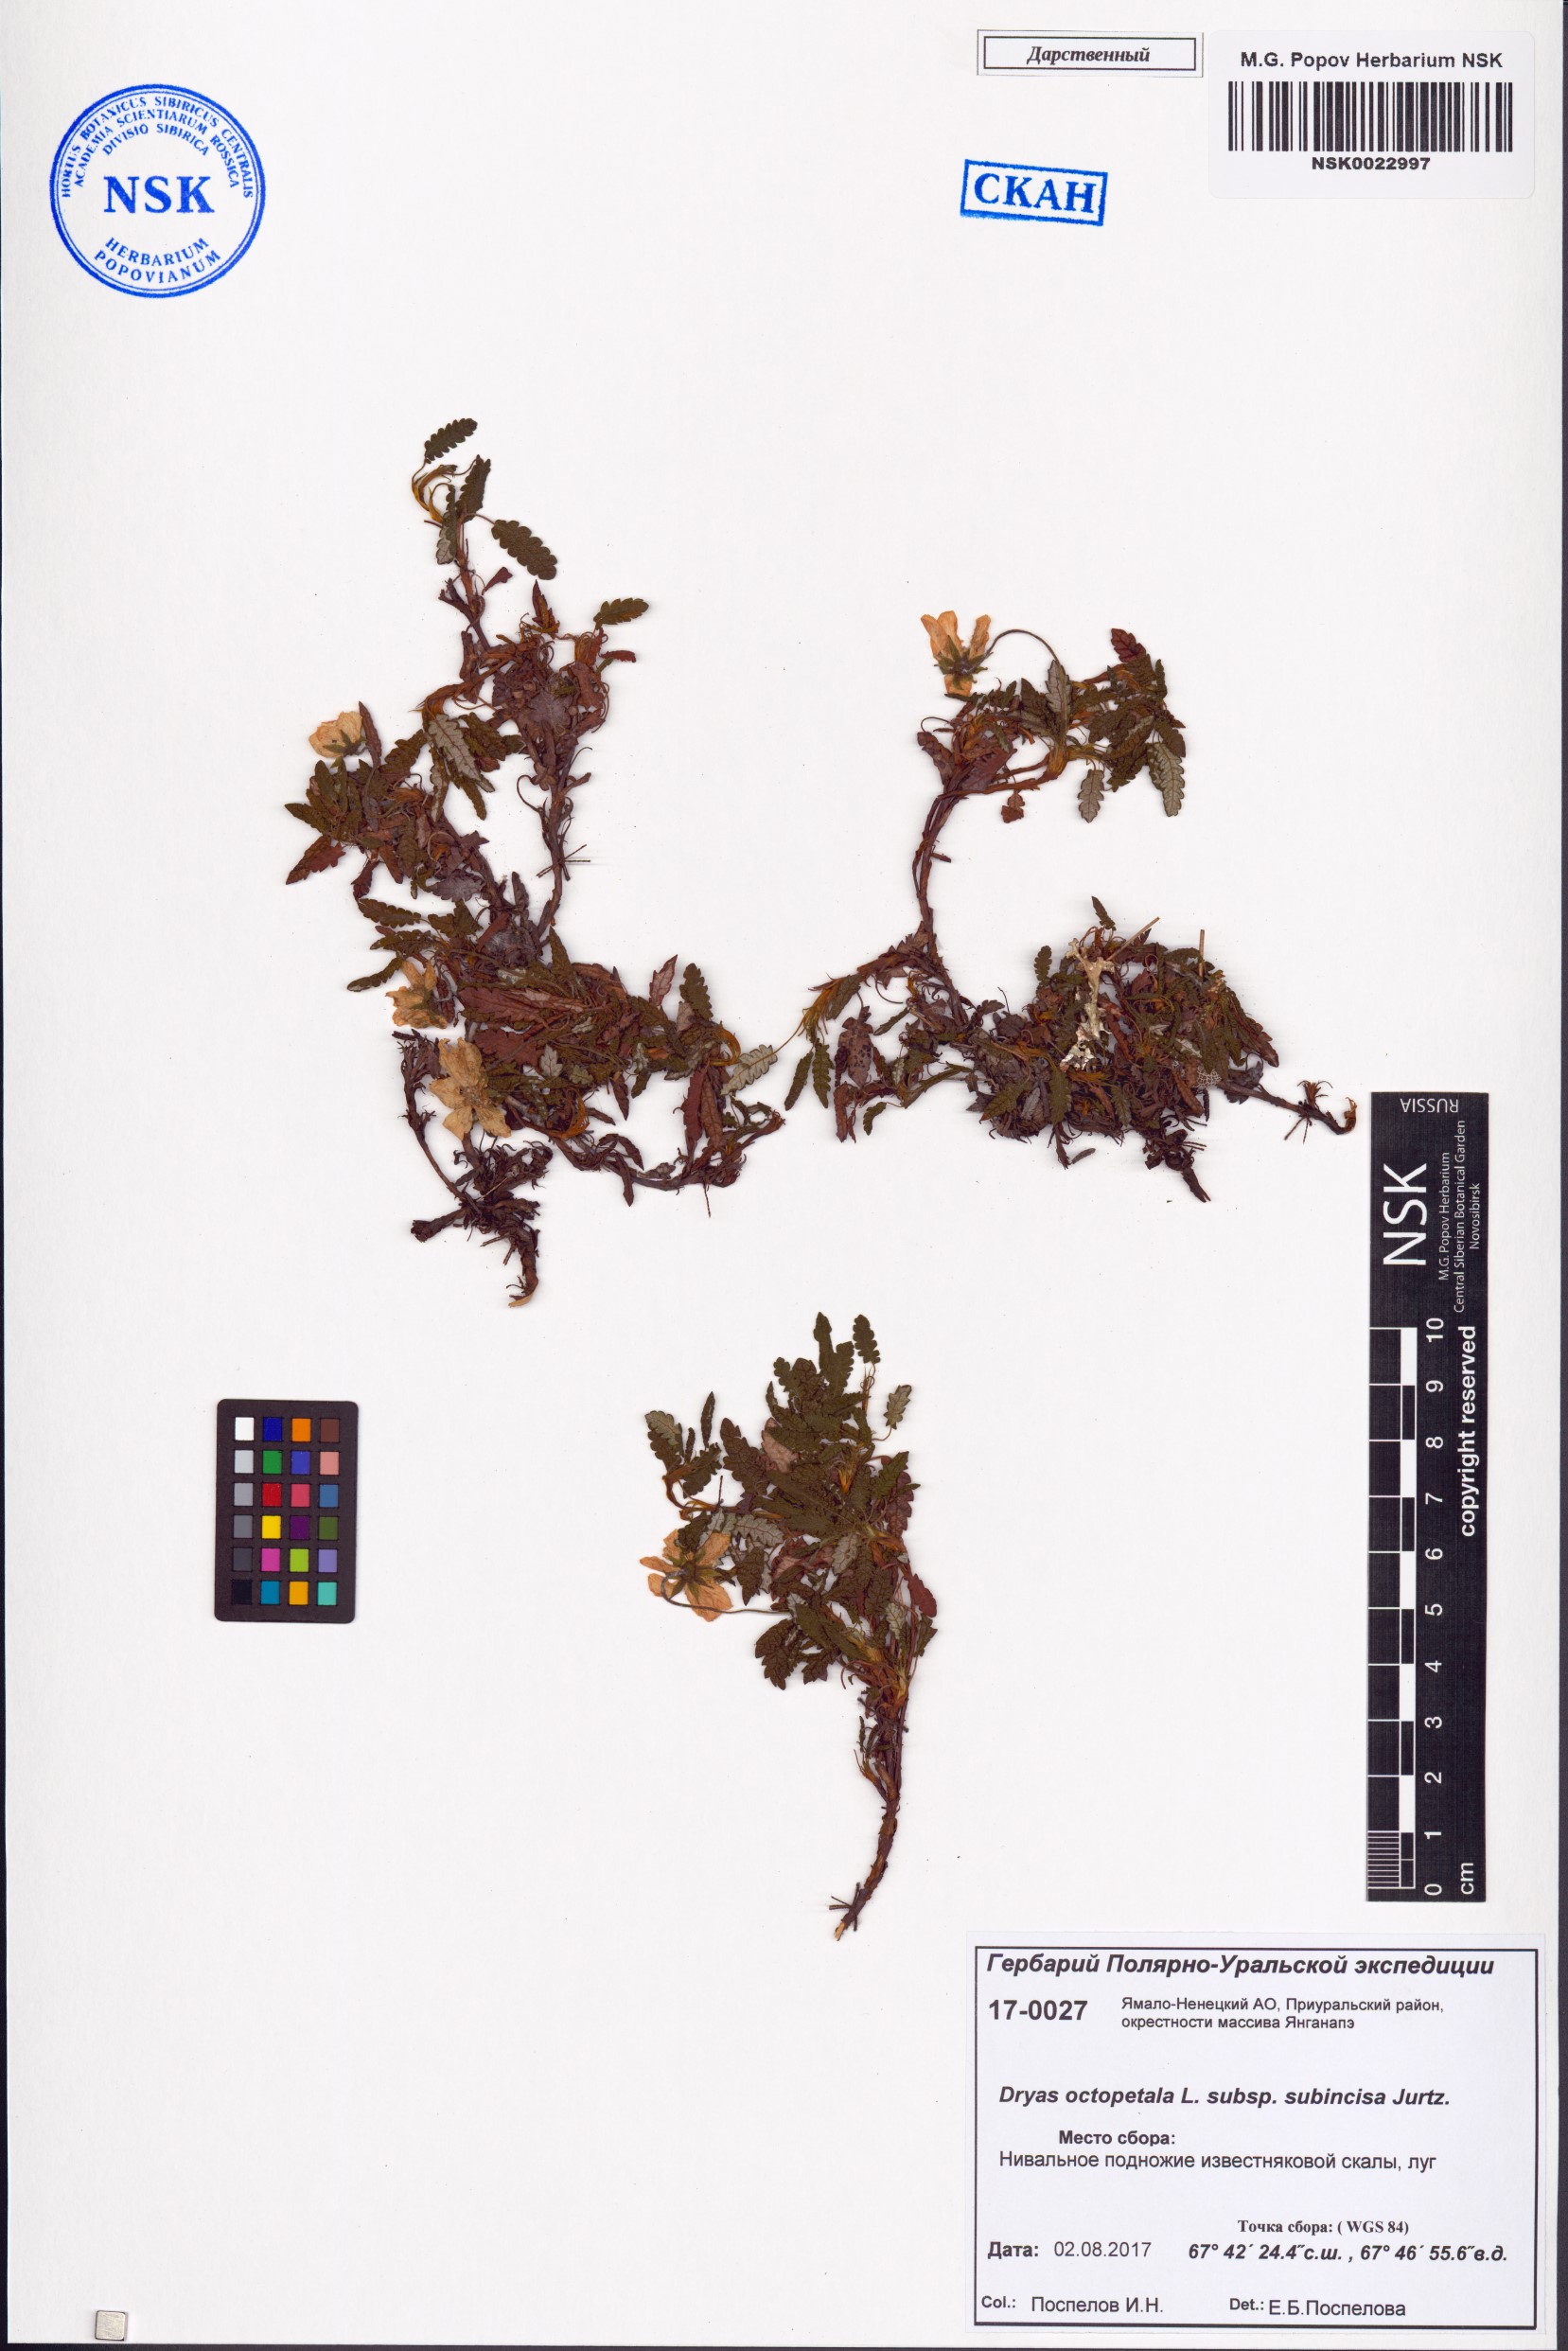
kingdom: Plantae
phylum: Tracheophyta
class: Magnoliopsida
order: Rosales
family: Rosaceae
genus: Dryas
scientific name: Dryas octopetala
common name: Eight-petal mountain-avens
